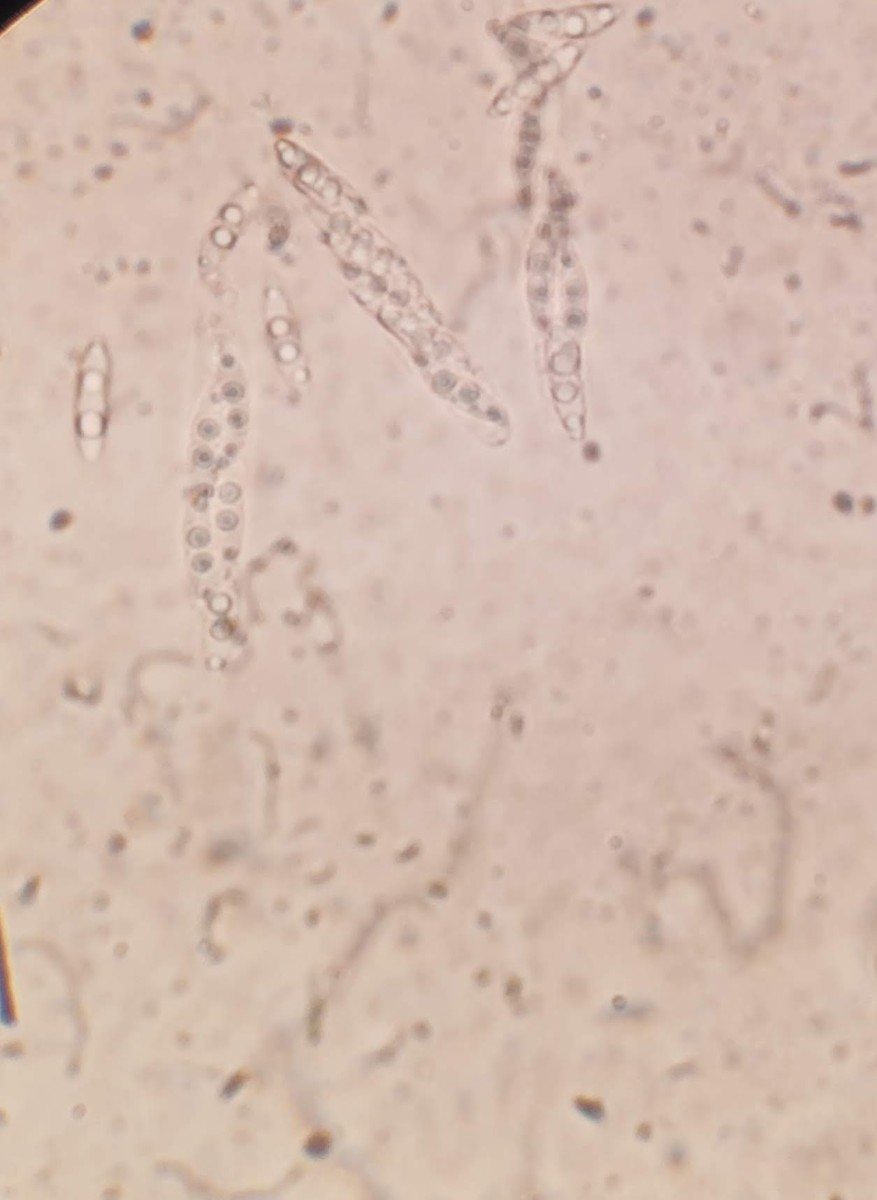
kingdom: Fungi
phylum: Ascomycota
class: Sordariomycetes
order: Diaporthales
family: Diaporthaceae
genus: Diaporthe
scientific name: Diaporthe strumella
